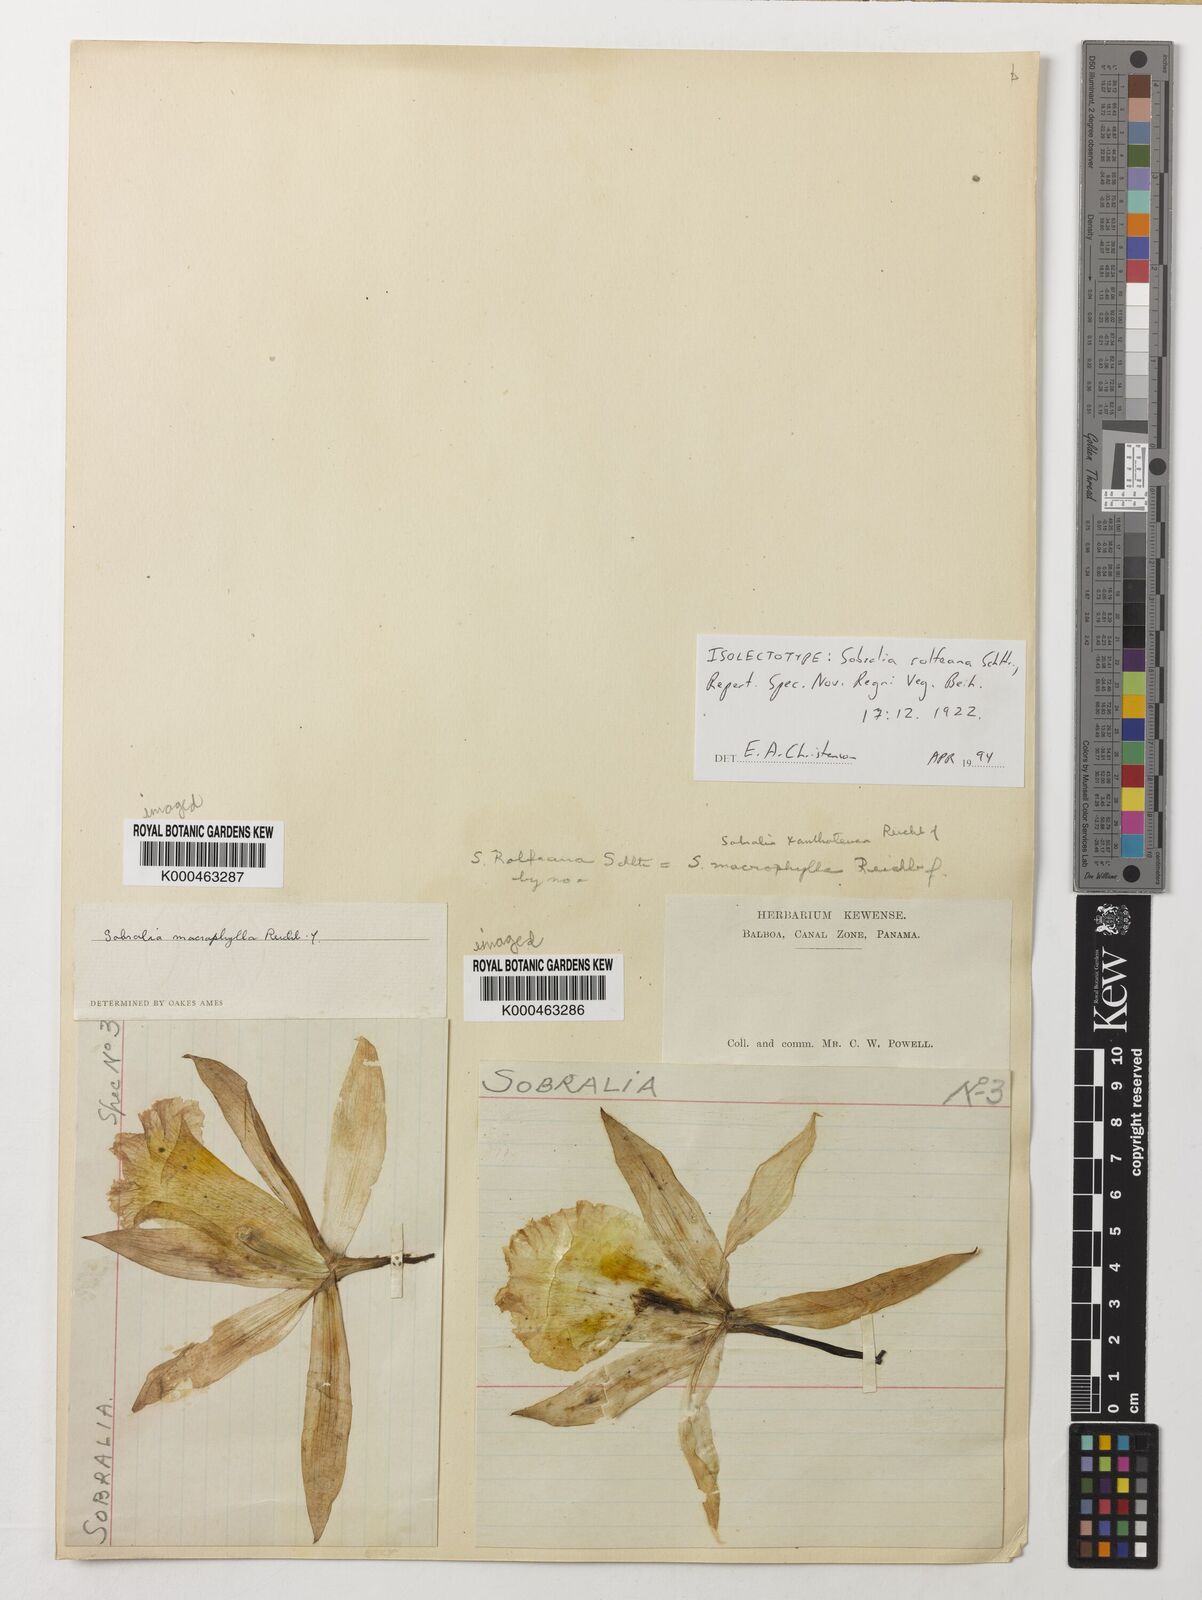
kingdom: Plantae
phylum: Tracheophyta
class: Liliopsida
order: Asparagales
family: Orchidaceae
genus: Sobralia
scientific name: Sobralia macrophylla
